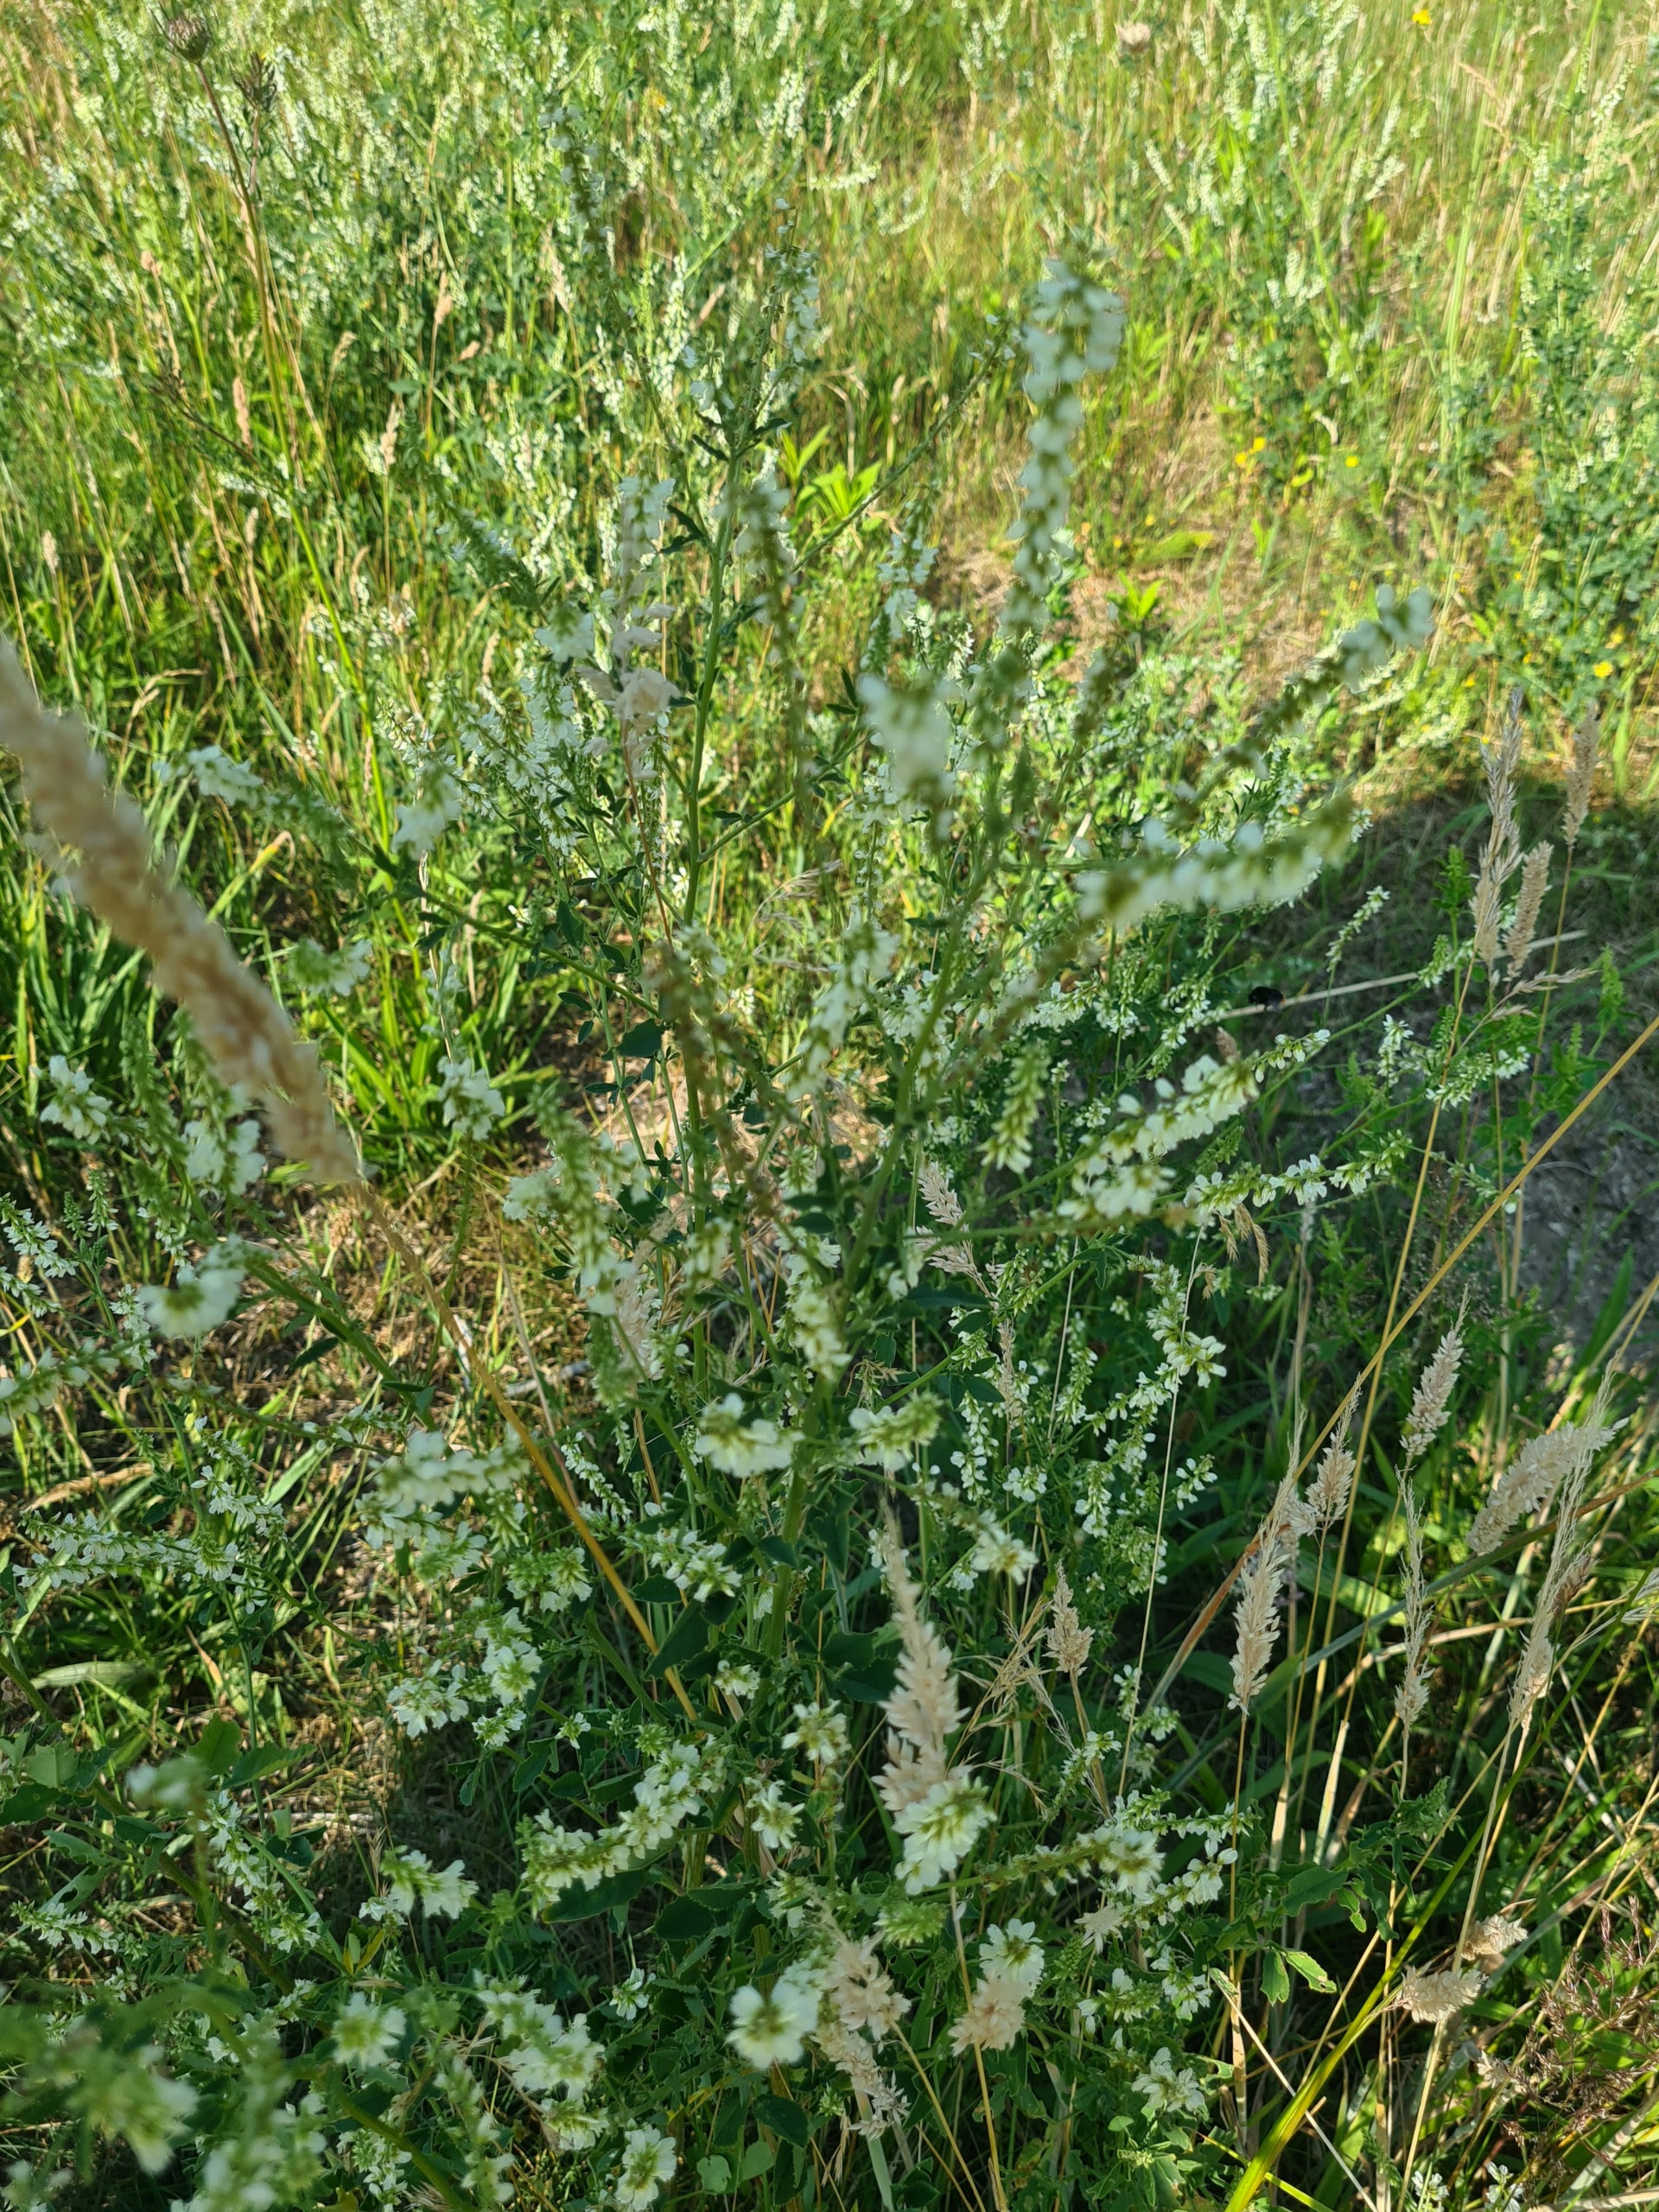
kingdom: Plantae
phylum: Tracheophyta
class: Magnoliopsida
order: Fabales
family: Fabaceae
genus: Melilotus
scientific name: Melilotus albus
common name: Hvid stenkløver
